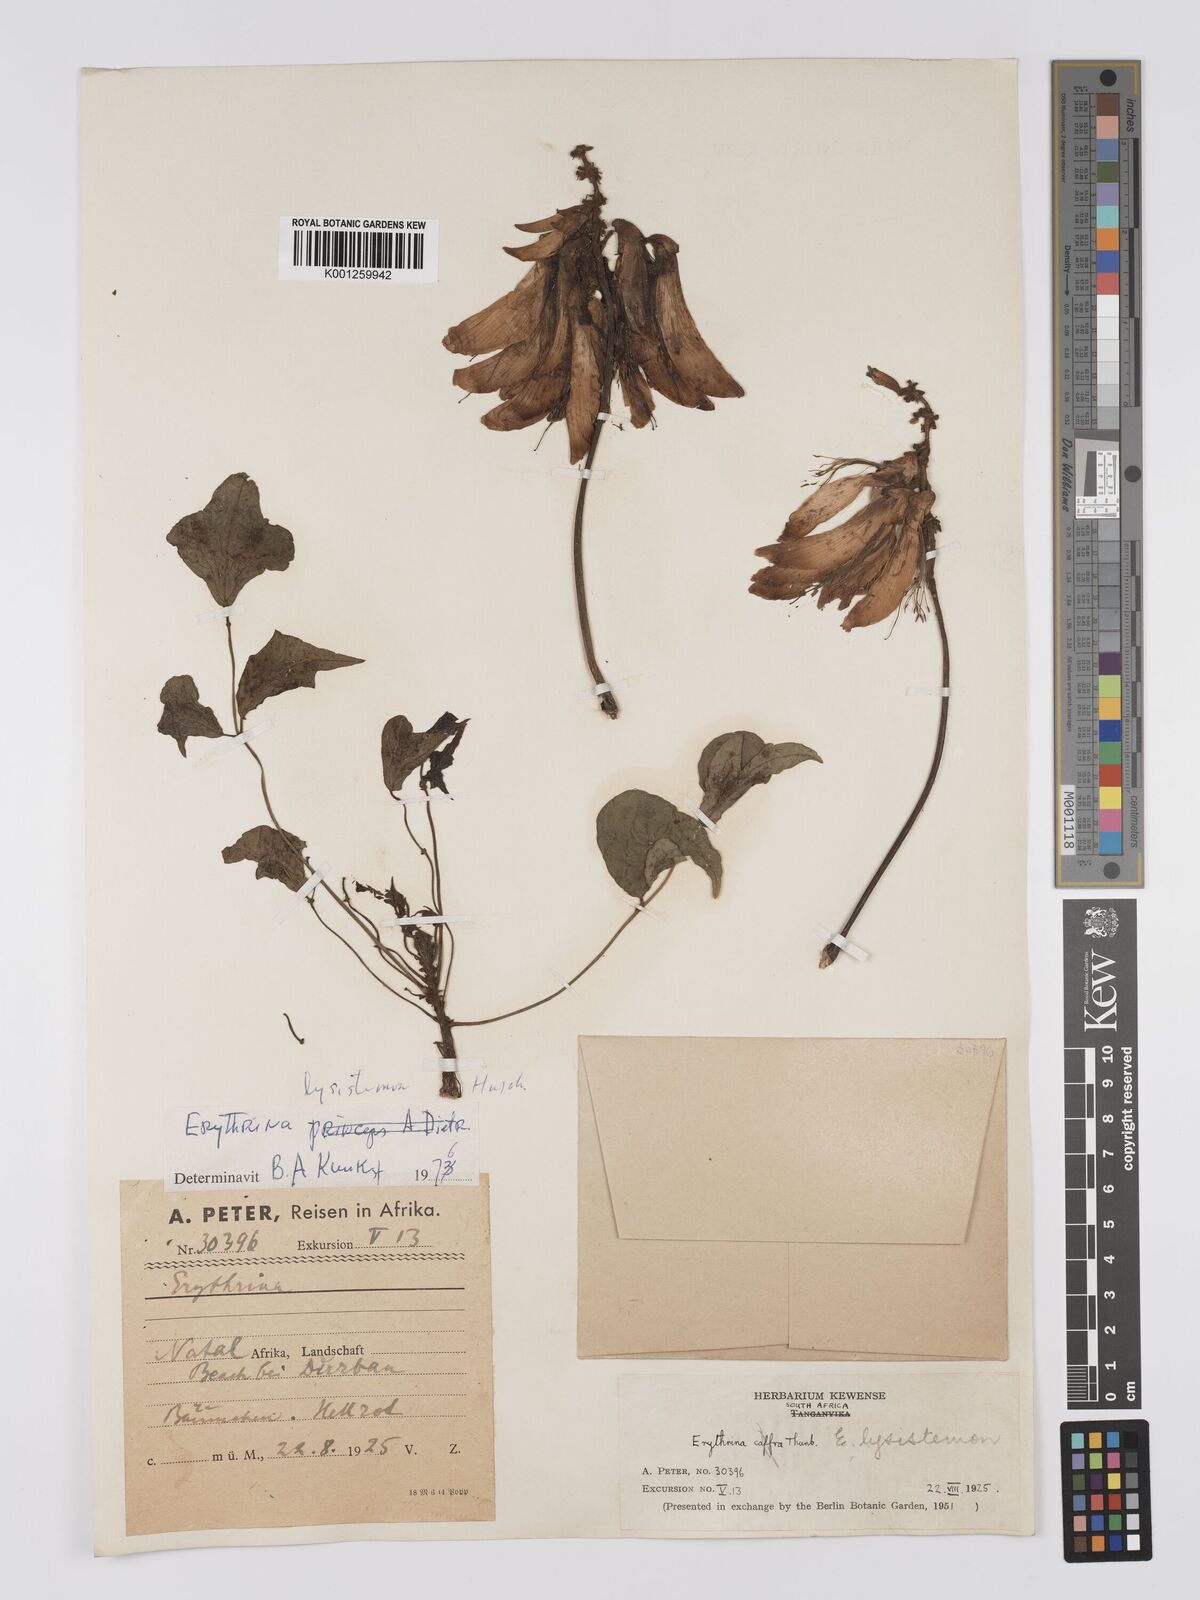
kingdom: Plantae
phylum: Tracheophyta
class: Magnoliopsida
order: Fabales
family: Fabaceae
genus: Erythrina
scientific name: Erythrina lysistemon
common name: Common coral tree
